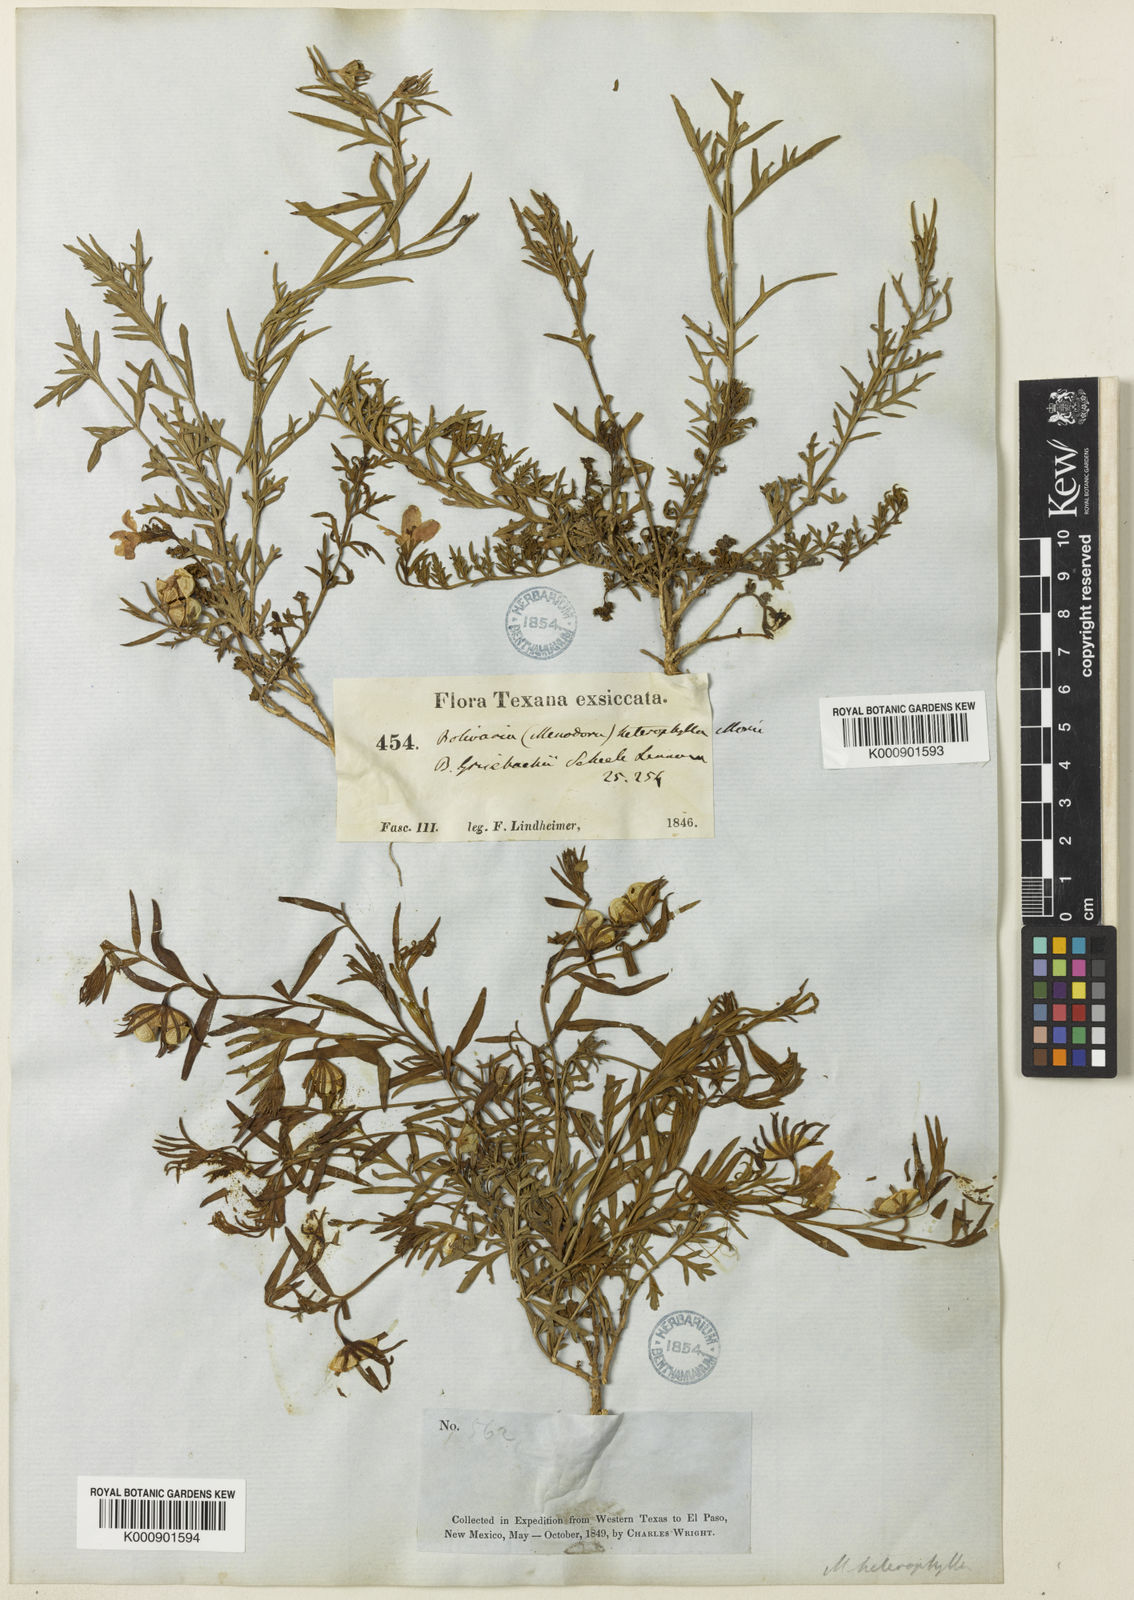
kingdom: Plantae
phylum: Tracheophyta
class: Magnoliopsida
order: Lamiales
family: Oleaceae
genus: Menodora
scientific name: Menodora heterophylla
